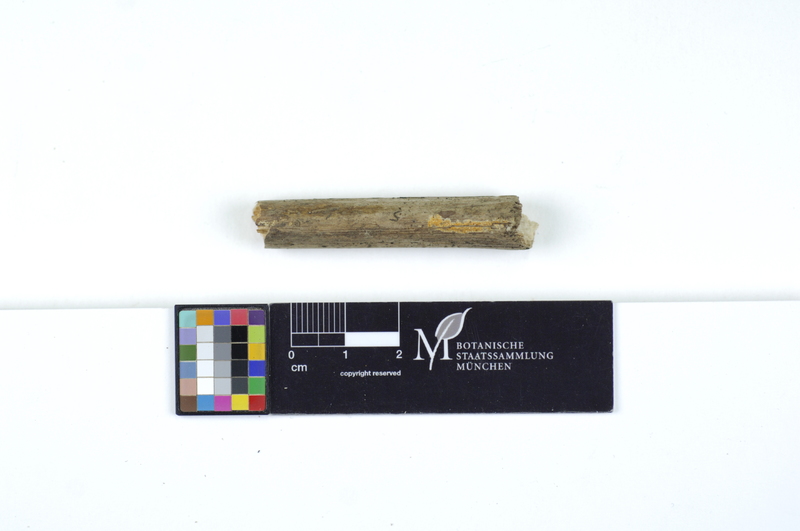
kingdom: Fungi
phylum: Basidiomycota
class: Agaricomycetes
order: Polyporales
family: Irpicaceae
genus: Ceriporia
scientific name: Ceriporia reticulata
